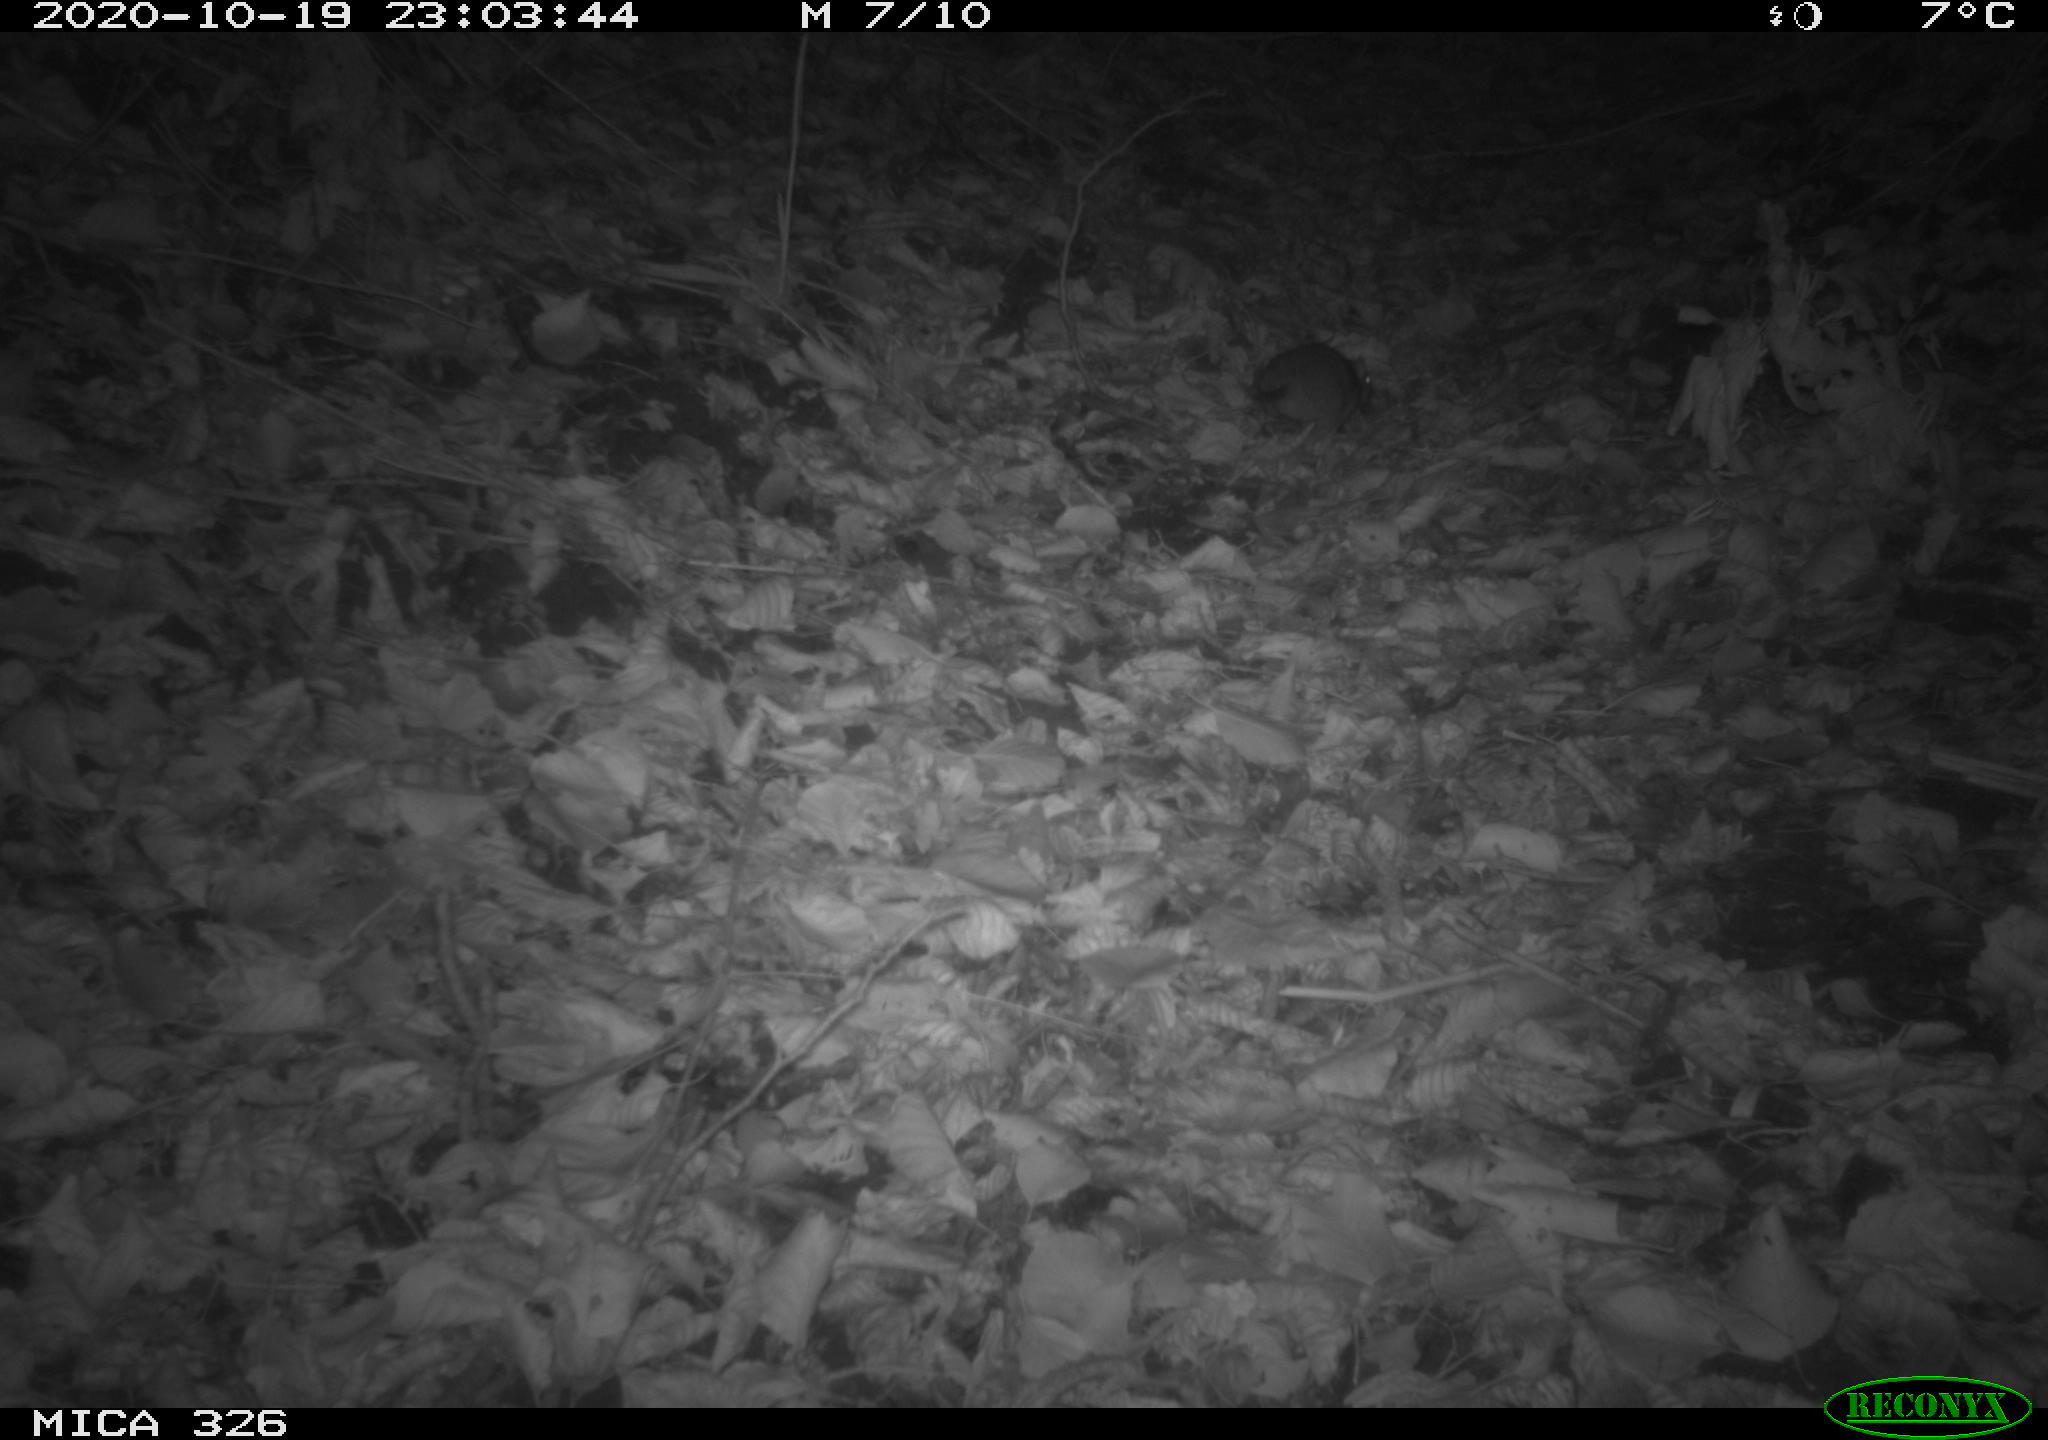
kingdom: Animalia
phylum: Chordata
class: Mammalia
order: Rodentia
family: Muridae
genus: Rattus
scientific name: Rattus norvegicus
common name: Brown rat
